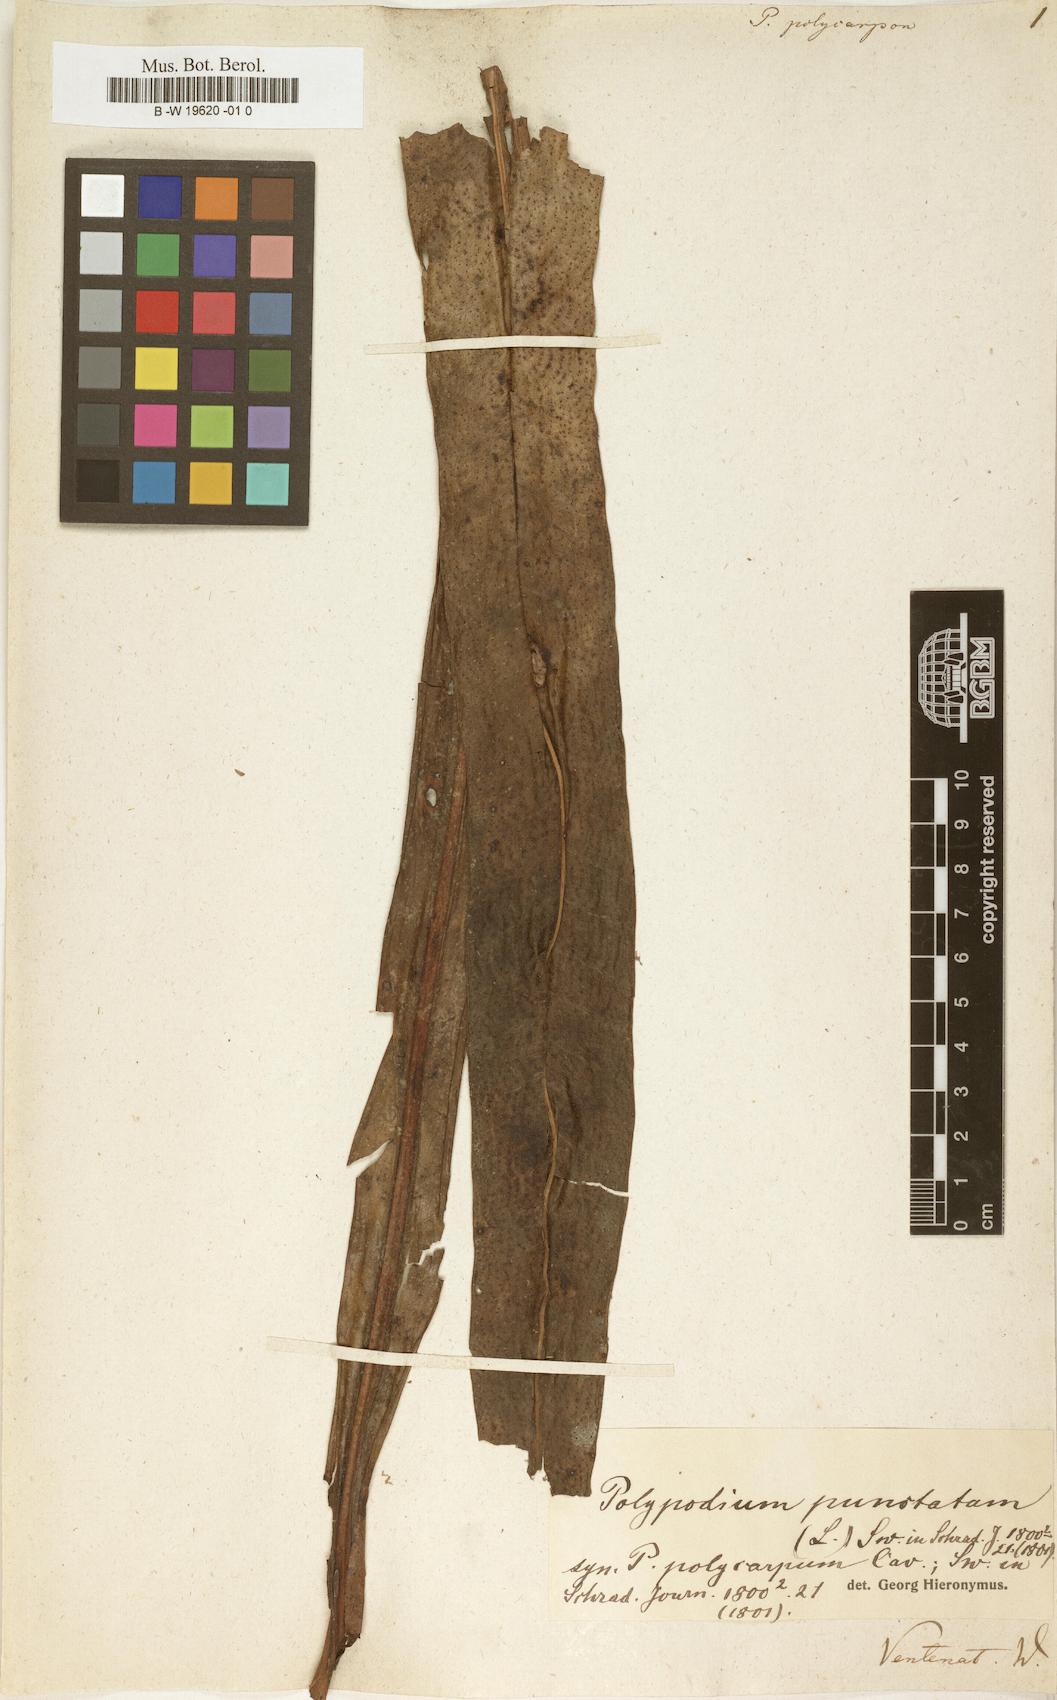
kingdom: Plantae
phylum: Tracheophyta
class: Polypodiopsida
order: Polypodiales
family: Polypodiaceae
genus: Microsorum
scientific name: Microsorum punctatum
